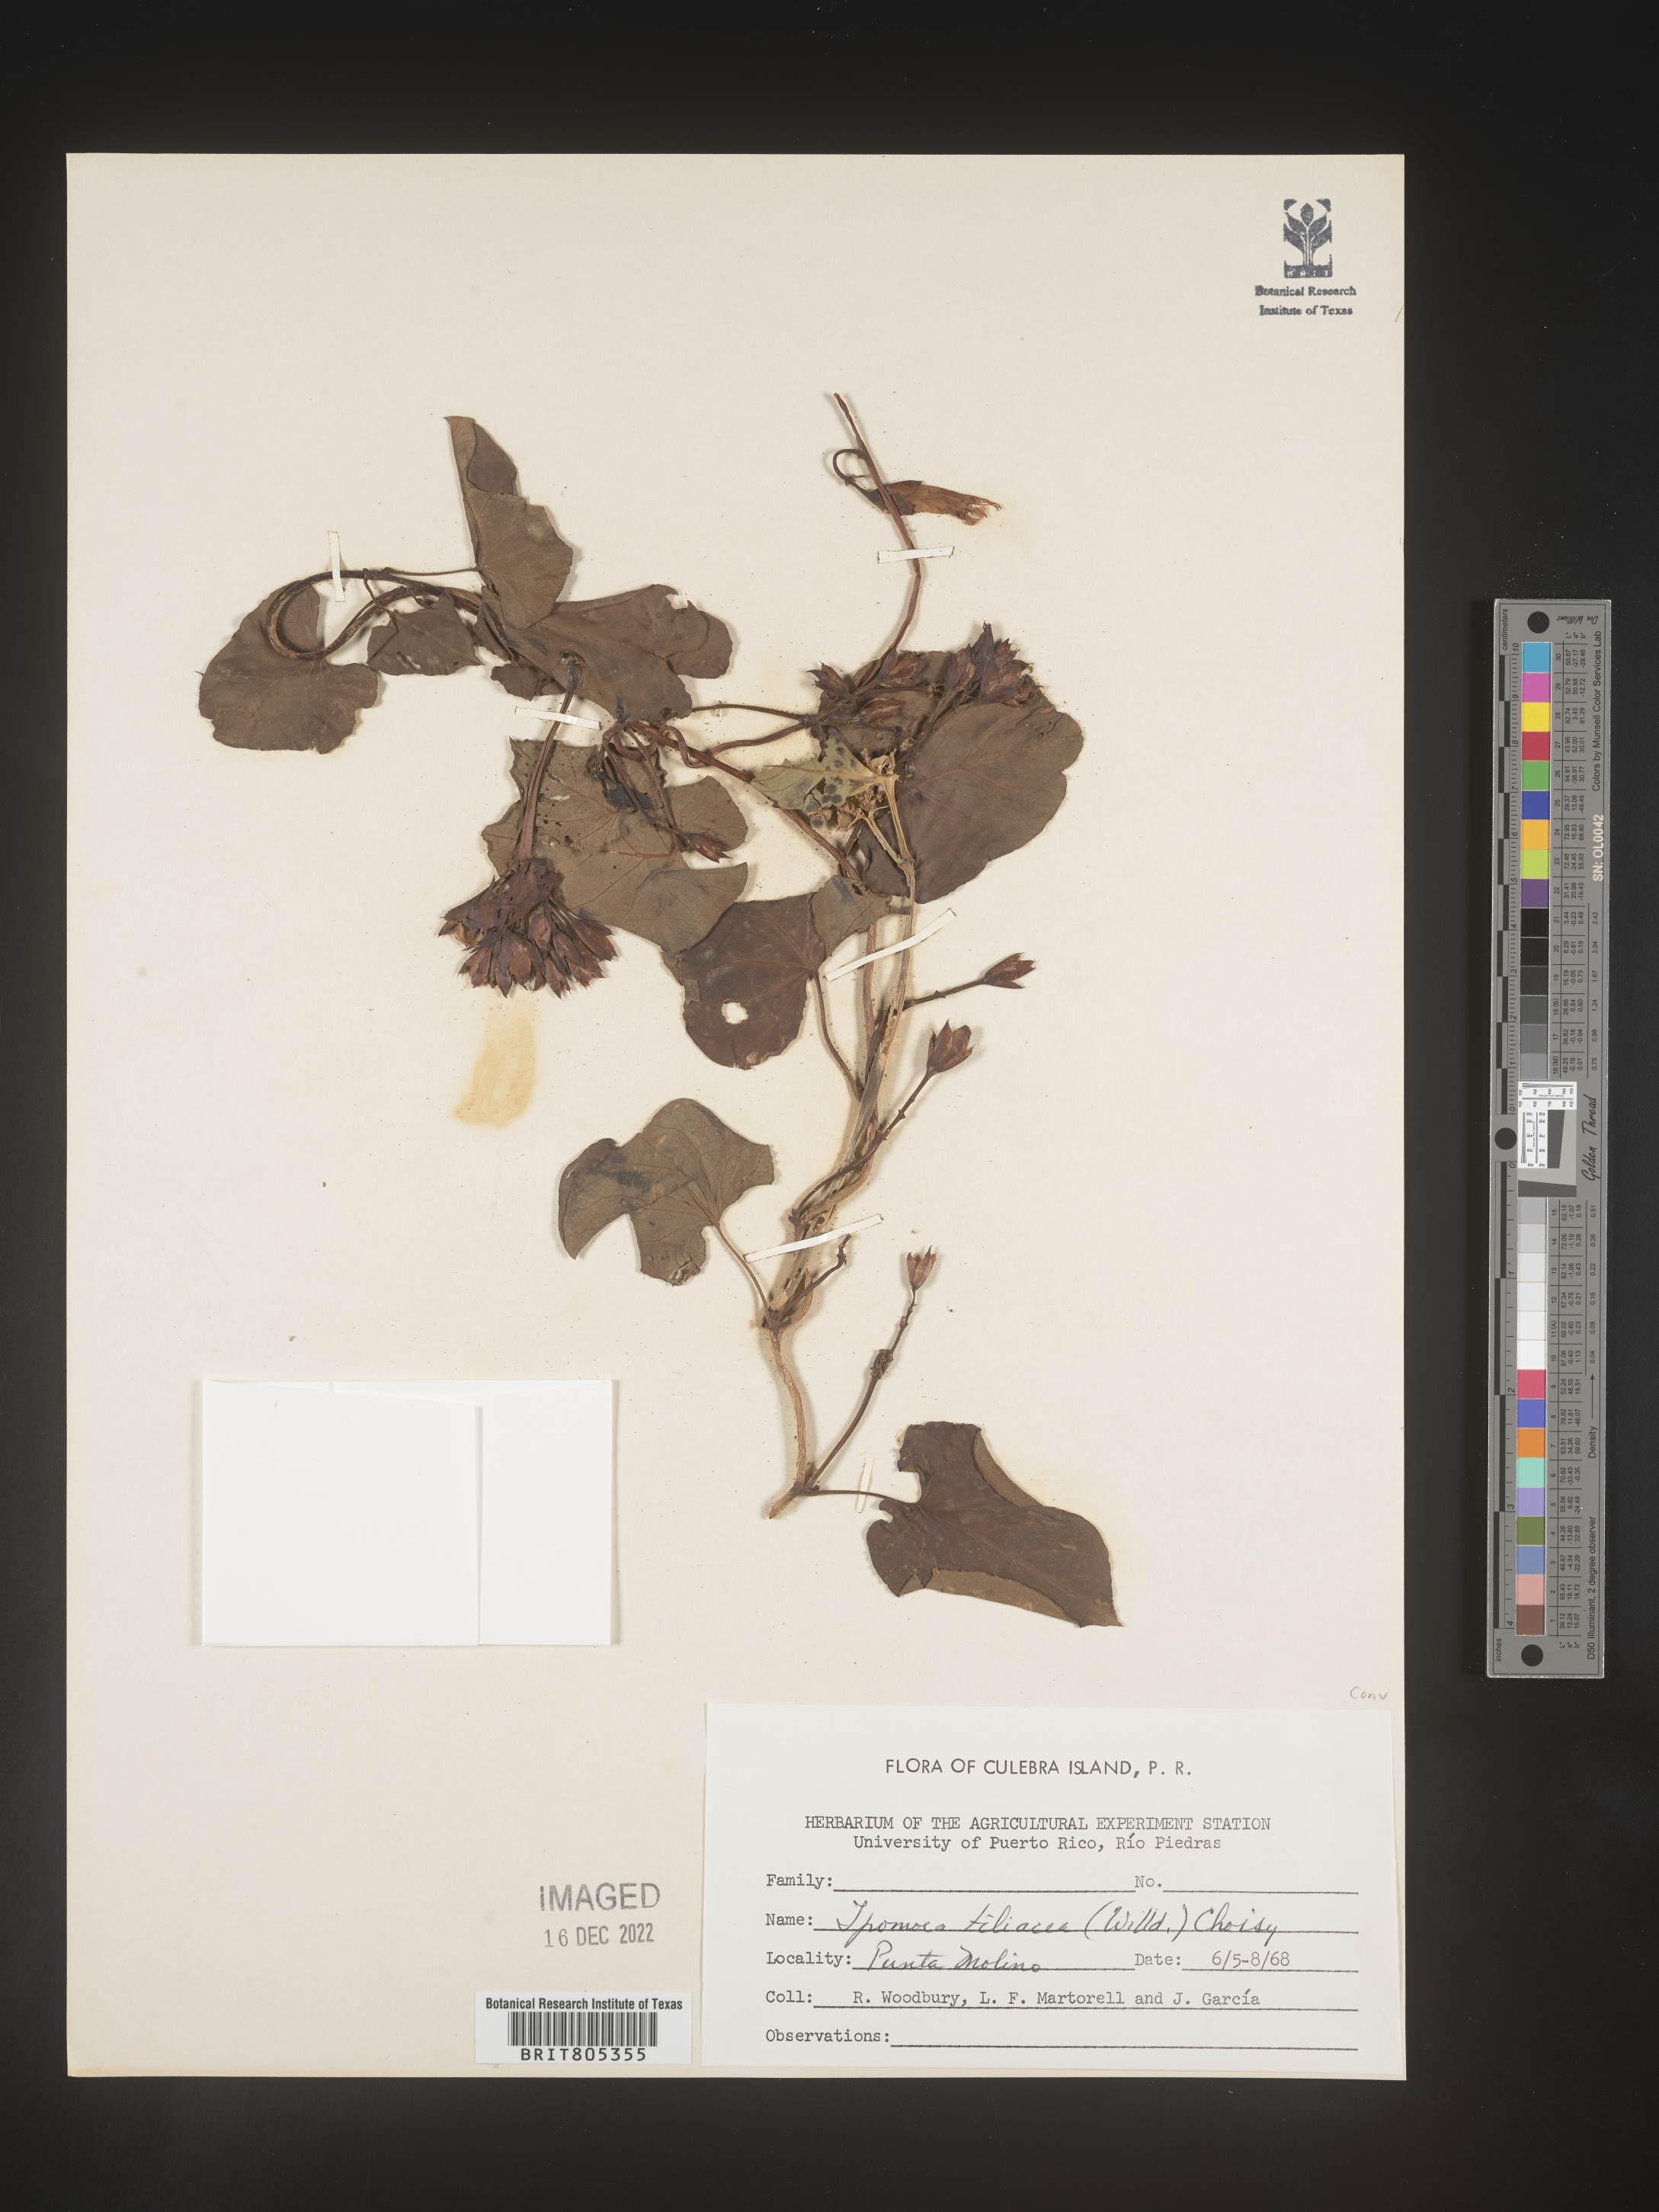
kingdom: Plantae
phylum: Tracheophyta
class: Magnoliopsida
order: Solanales
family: Convolvulaceae
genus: Ipomoea
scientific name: Ipomoea
